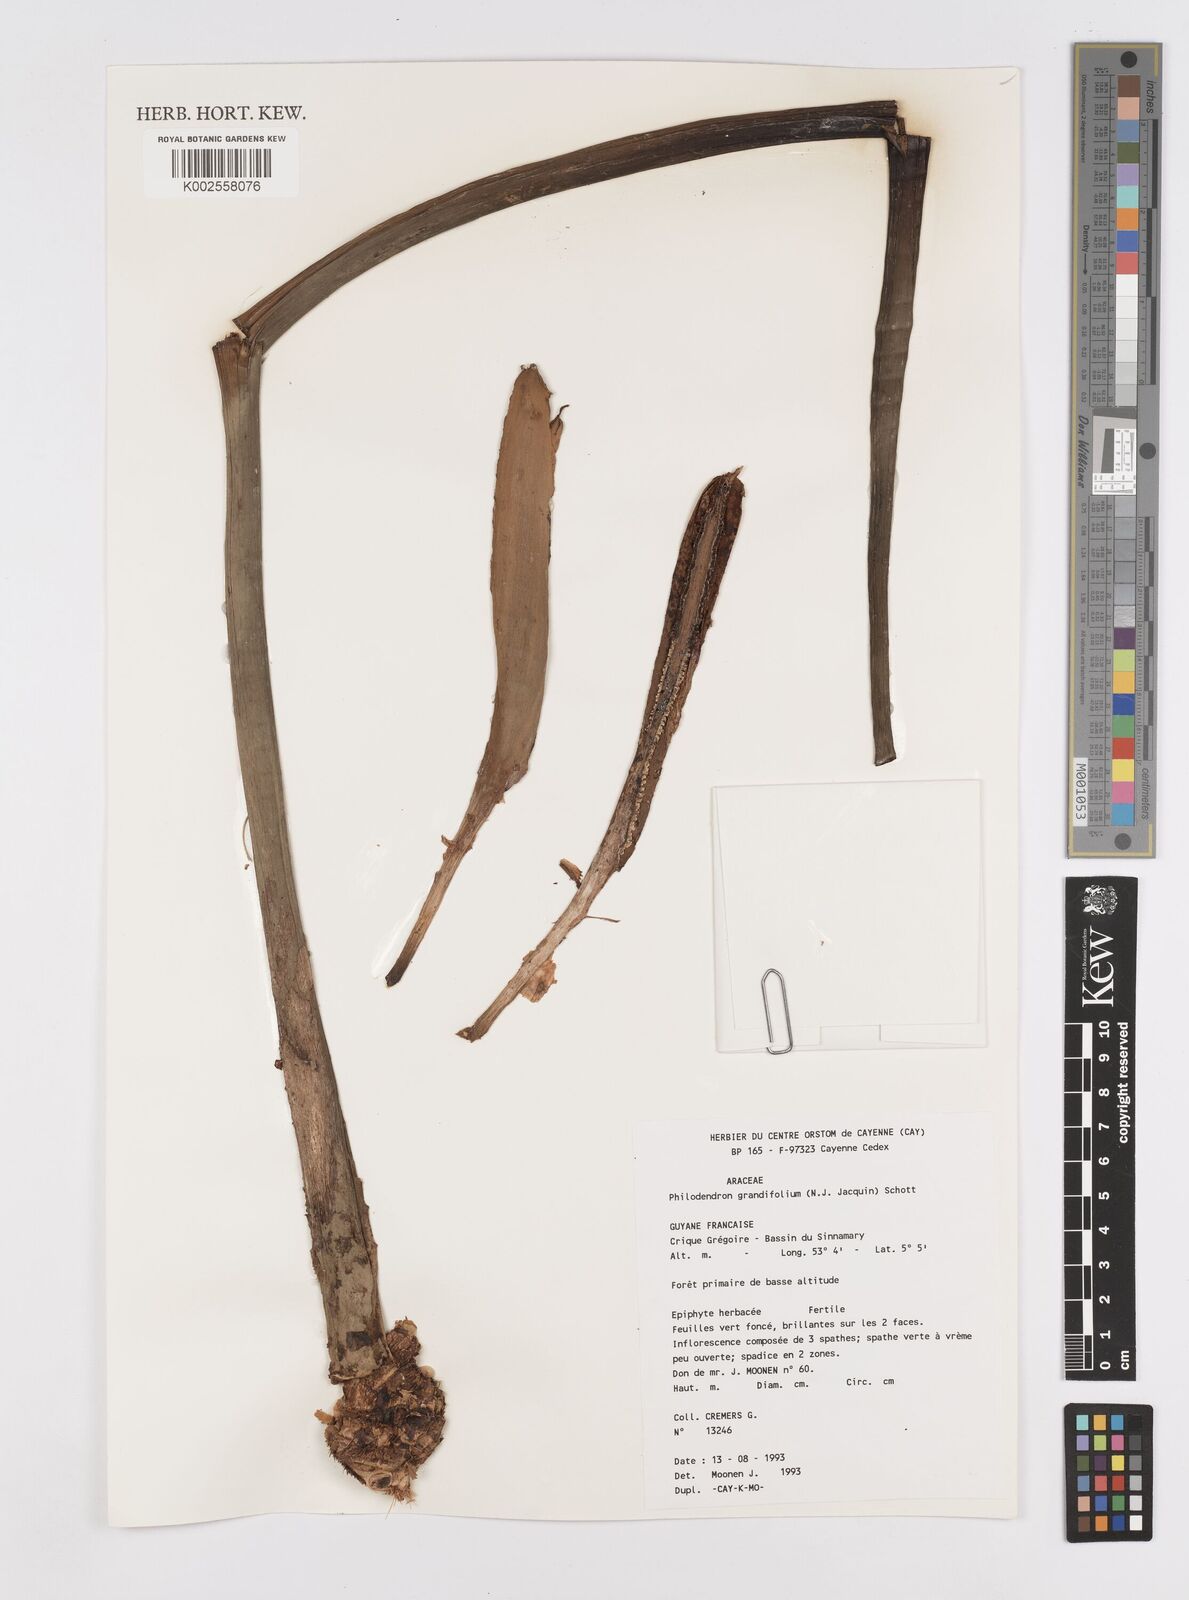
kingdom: Plantae
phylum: Tracheophyta
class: Liliopsida
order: Alismatales
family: Araceae
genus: Philodendron
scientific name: Philodendron grandifolium
